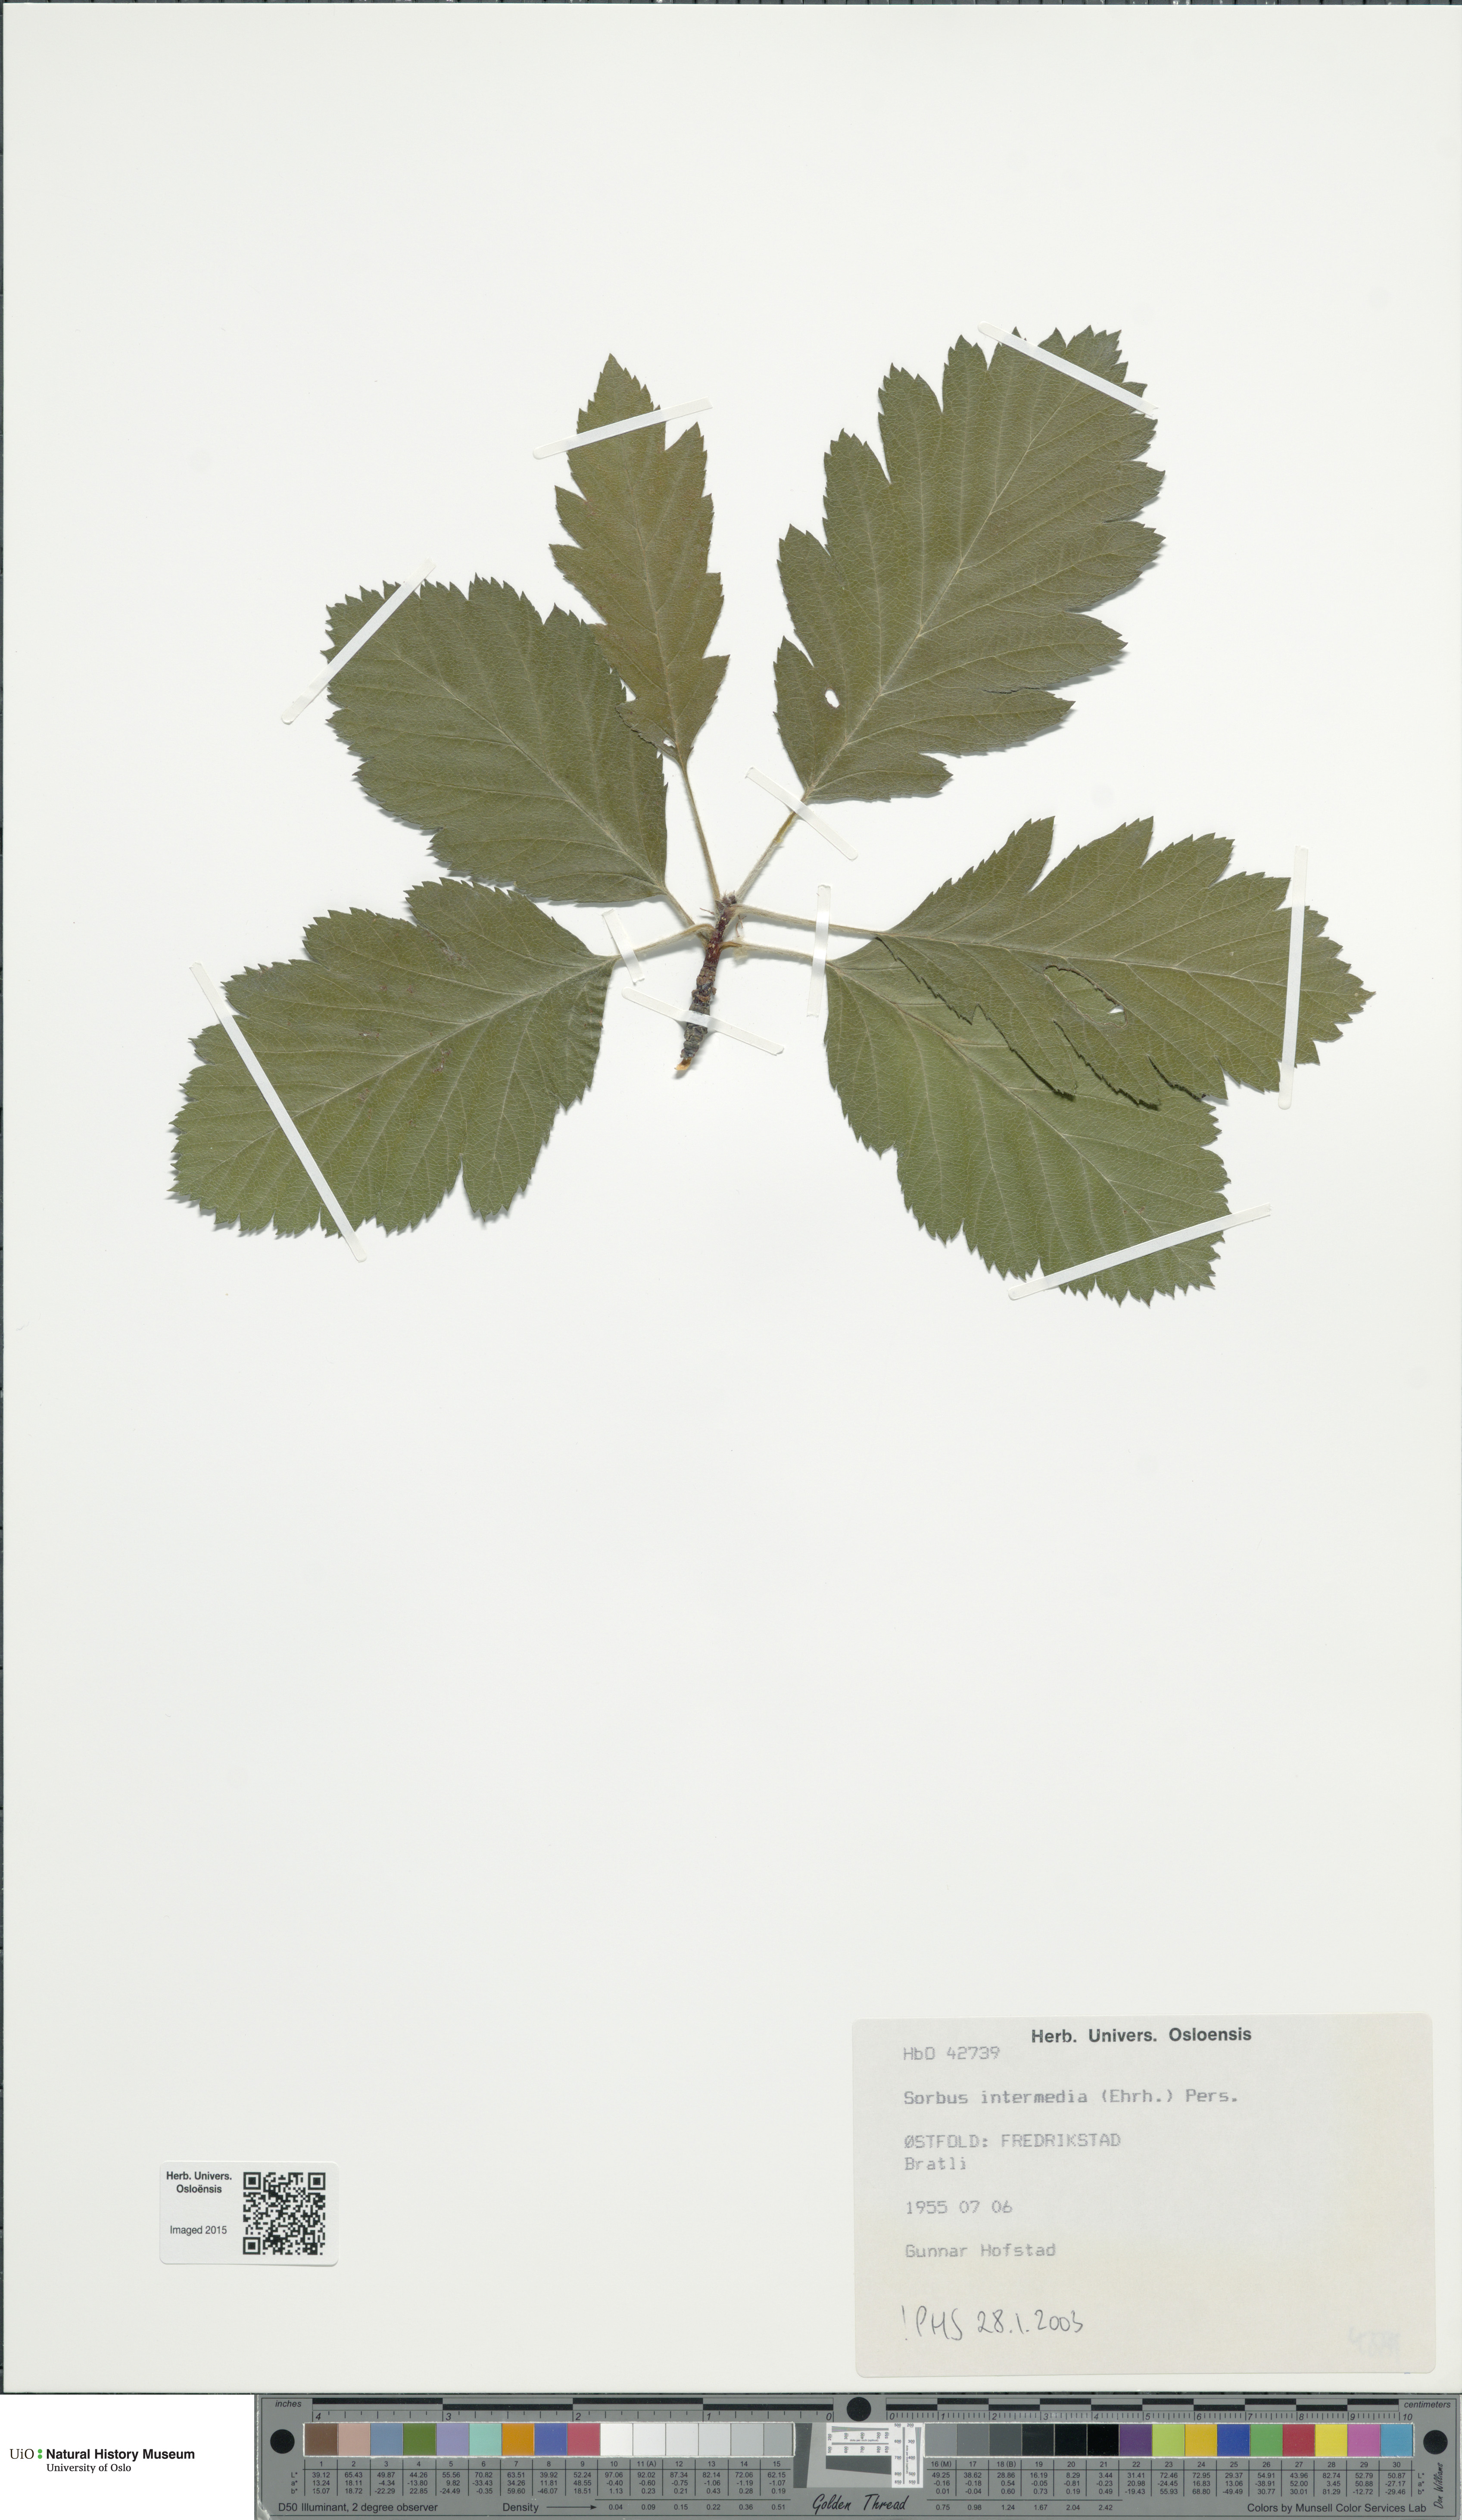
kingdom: Plantae
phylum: Tracheophyta
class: Magnoliopsida
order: Rosales
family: Rosaceae
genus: Scandosorbus
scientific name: Scandosorbus intermedia
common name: Swedish whitebeam
